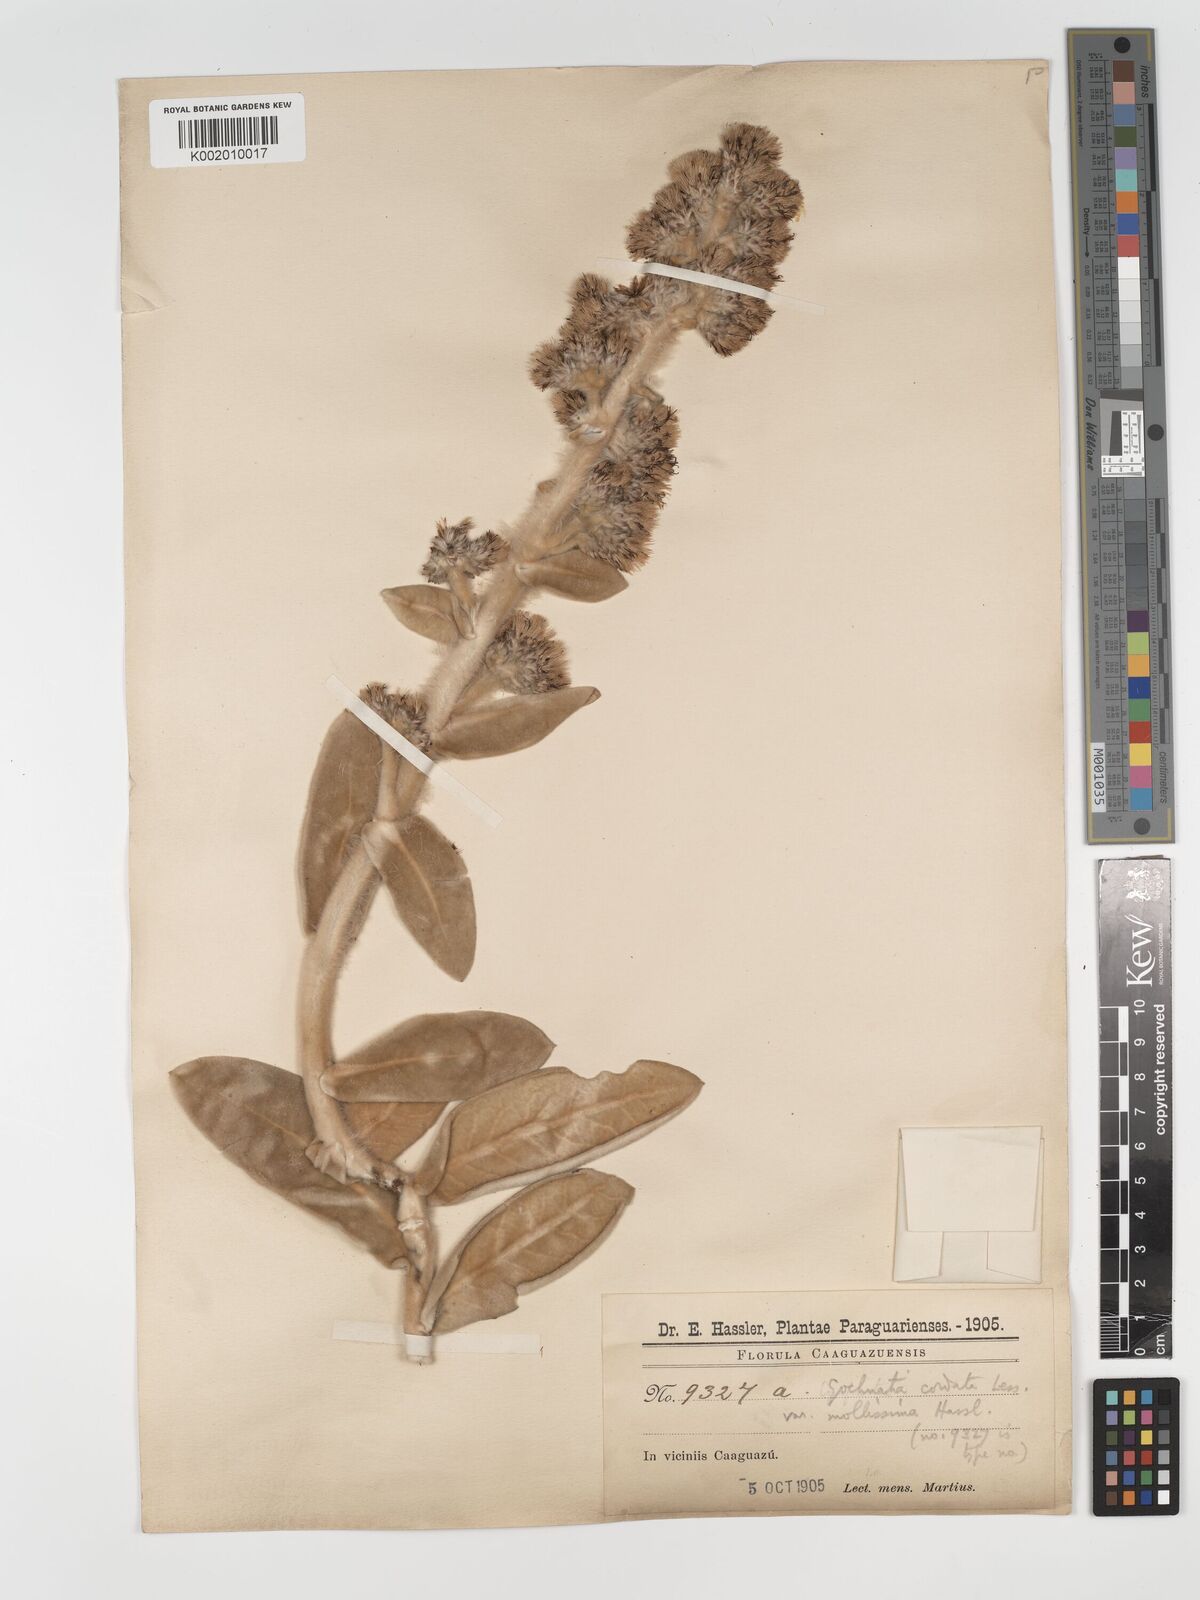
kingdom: Plantae
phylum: Tracheophyta
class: Magnoliopsida
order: Asterales
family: Asteraceae
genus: Moquiniastrum
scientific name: Moquiniastrum cordatum
